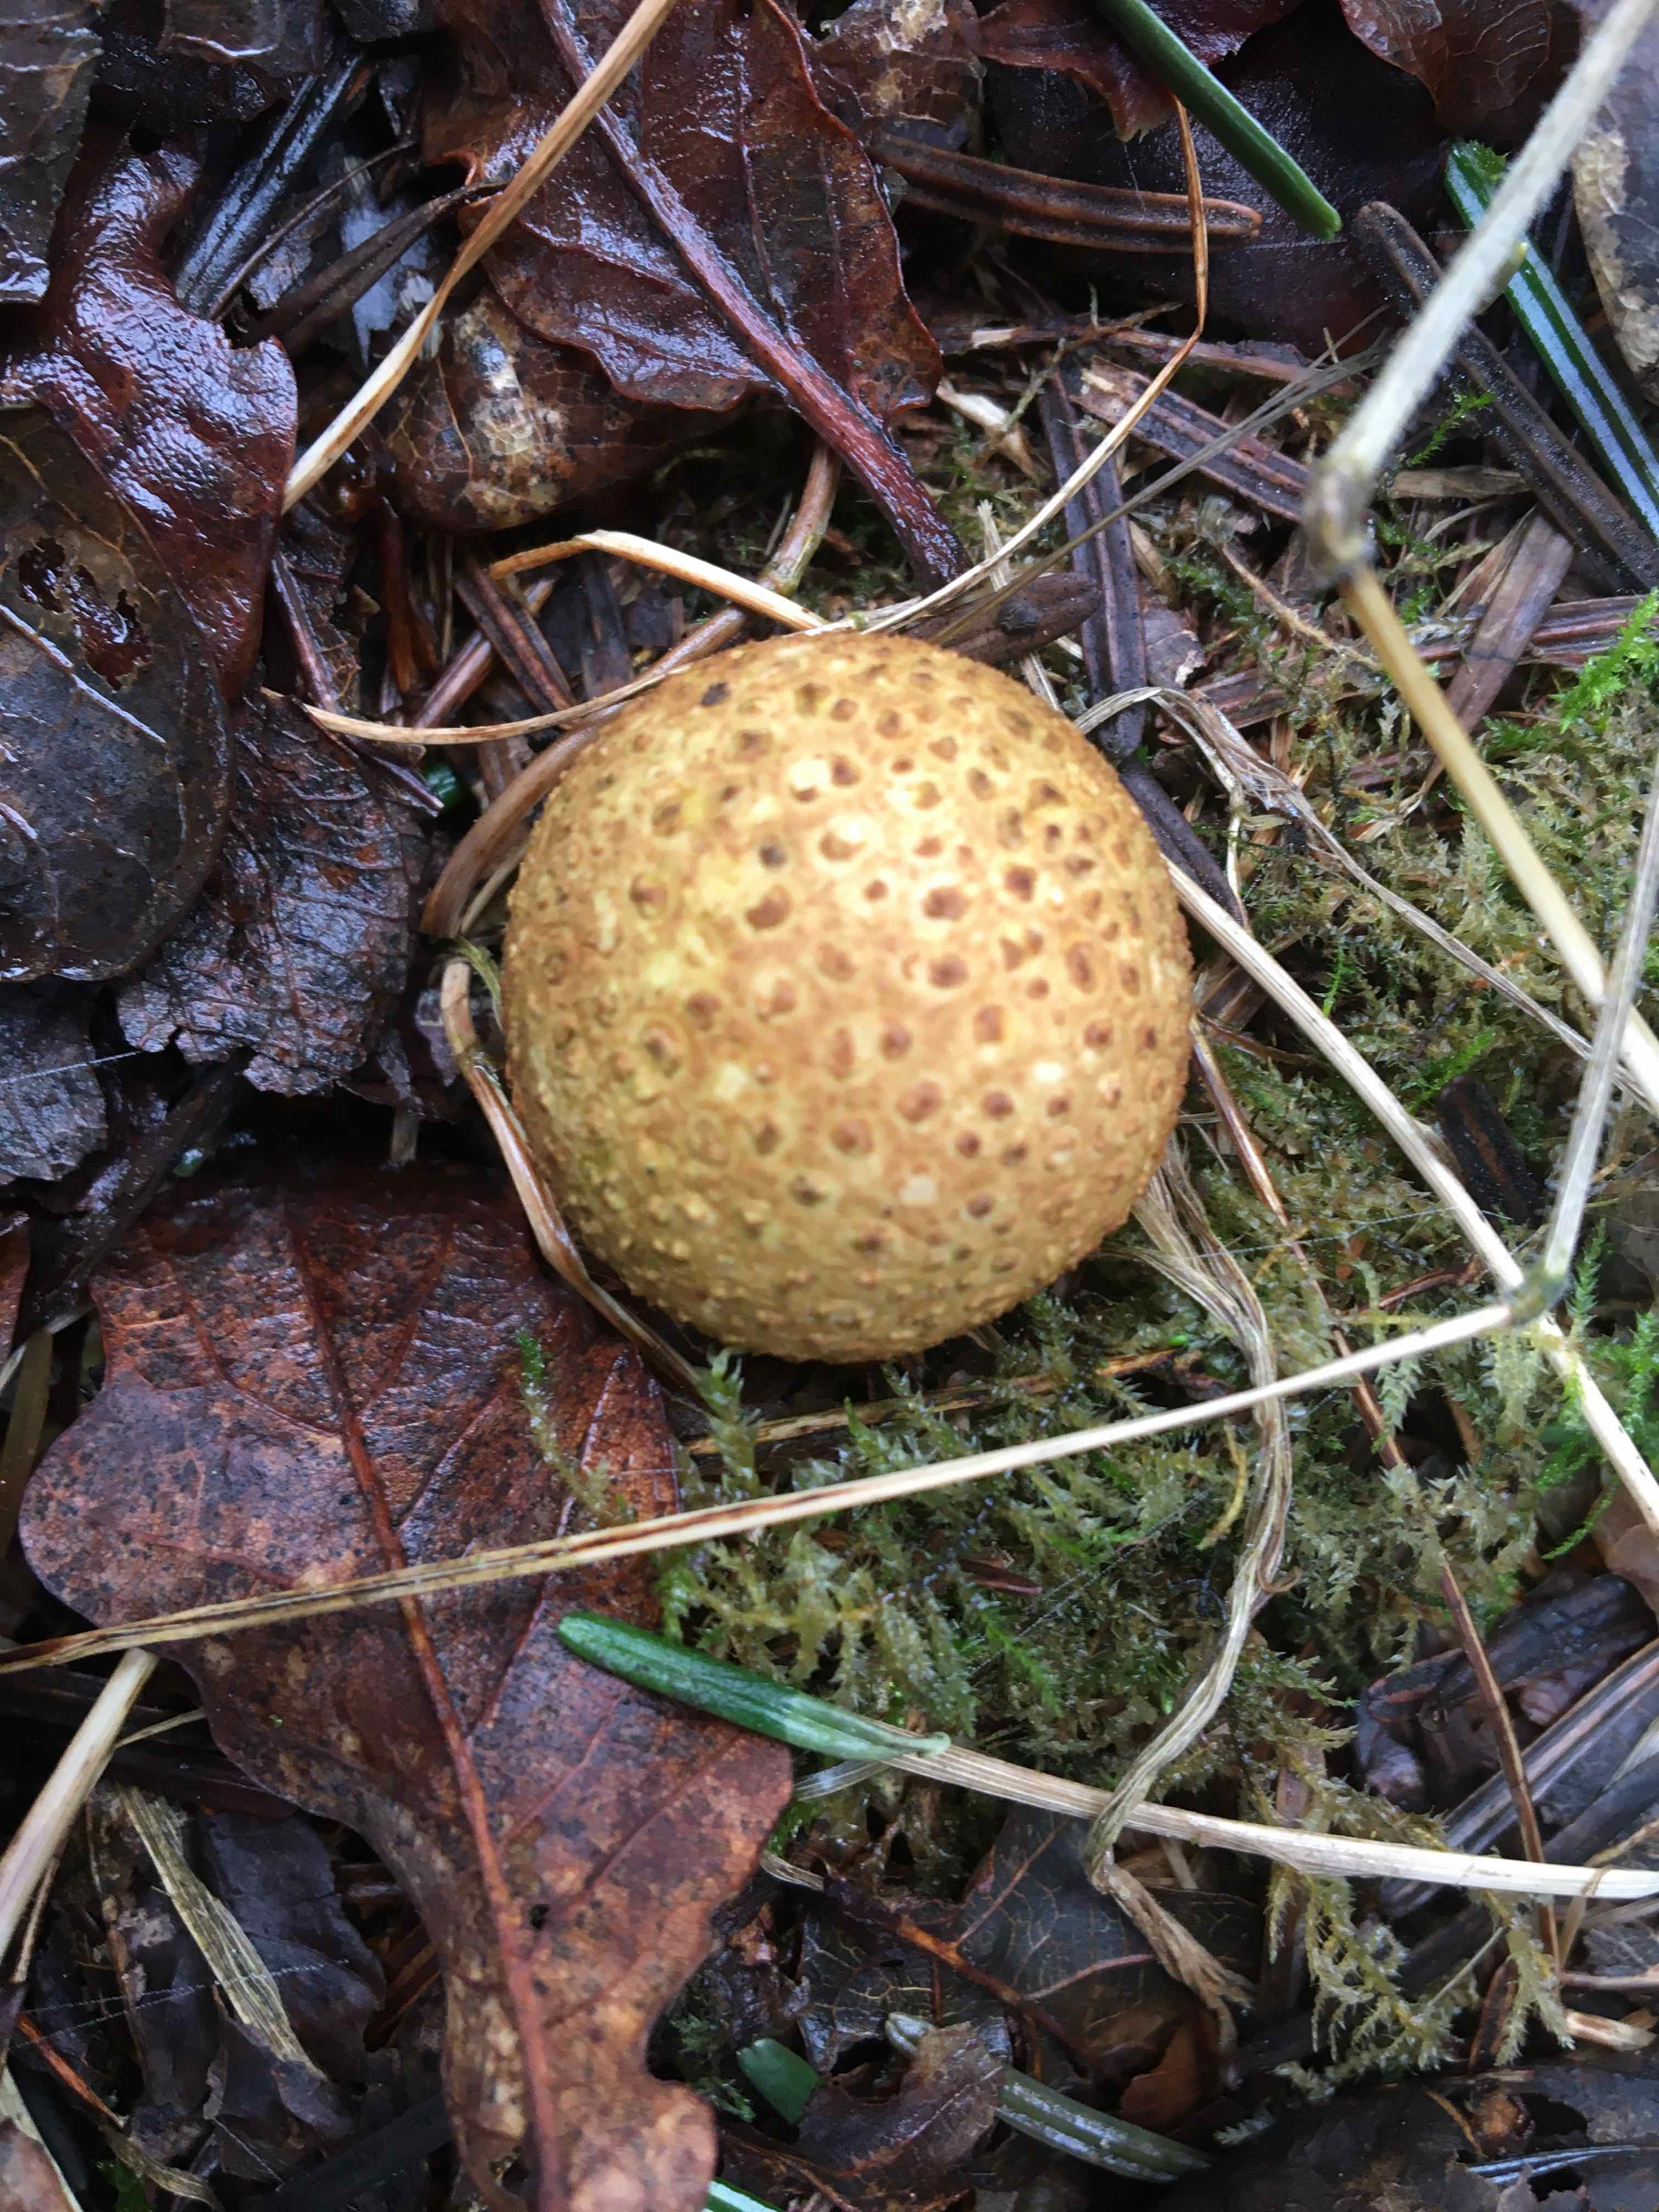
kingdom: Fungi
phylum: Basidiomycota
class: Agaricomycetes
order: Boletales
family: Sclerodermataceae
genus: Scleroderma
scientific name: Scleroderma citrinum
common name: almindelig bruskbold
